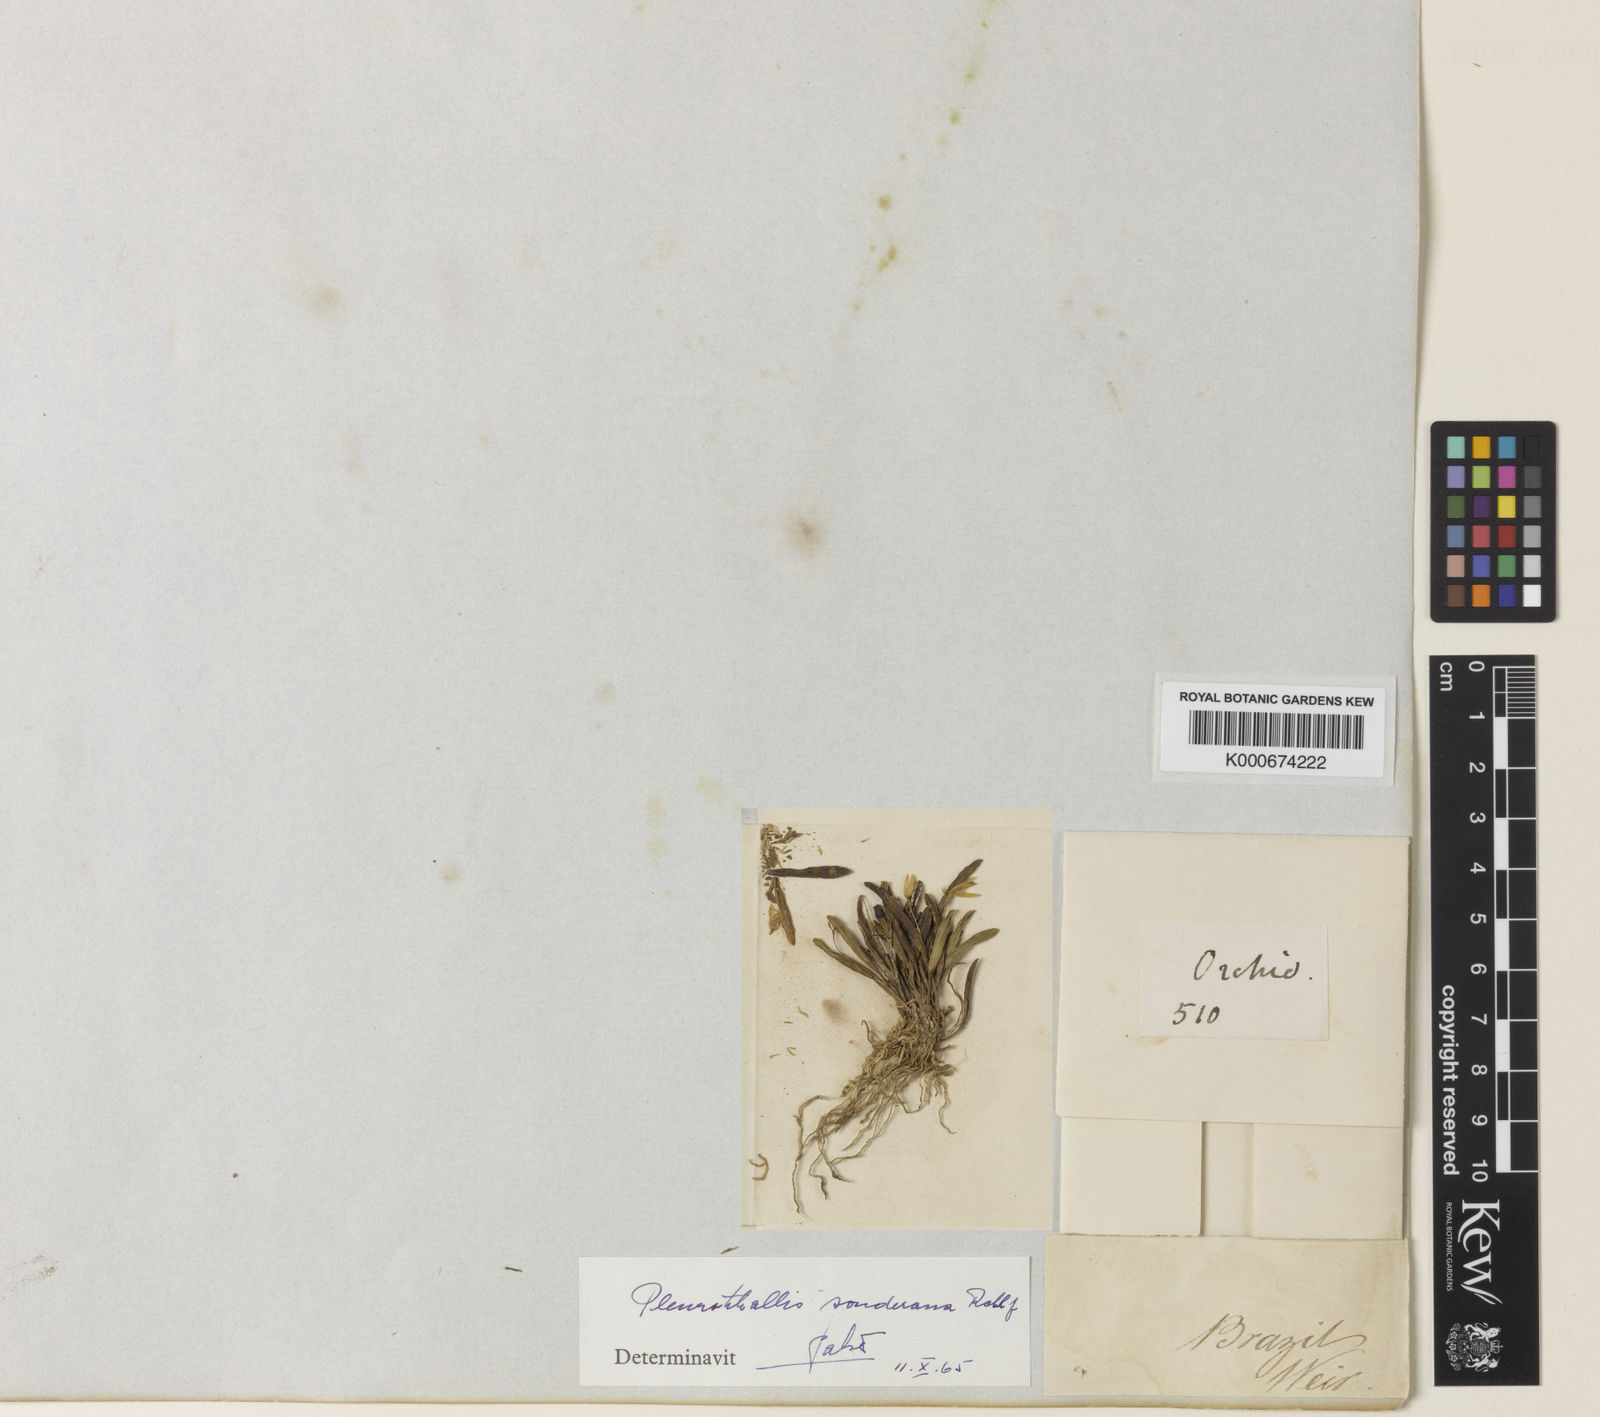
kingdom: Plantae
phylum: Tracheophyta
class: Liliopsida
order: Asparagales
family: Orchidaceae
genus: Acianthera
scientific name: Acianthera sonderiana
